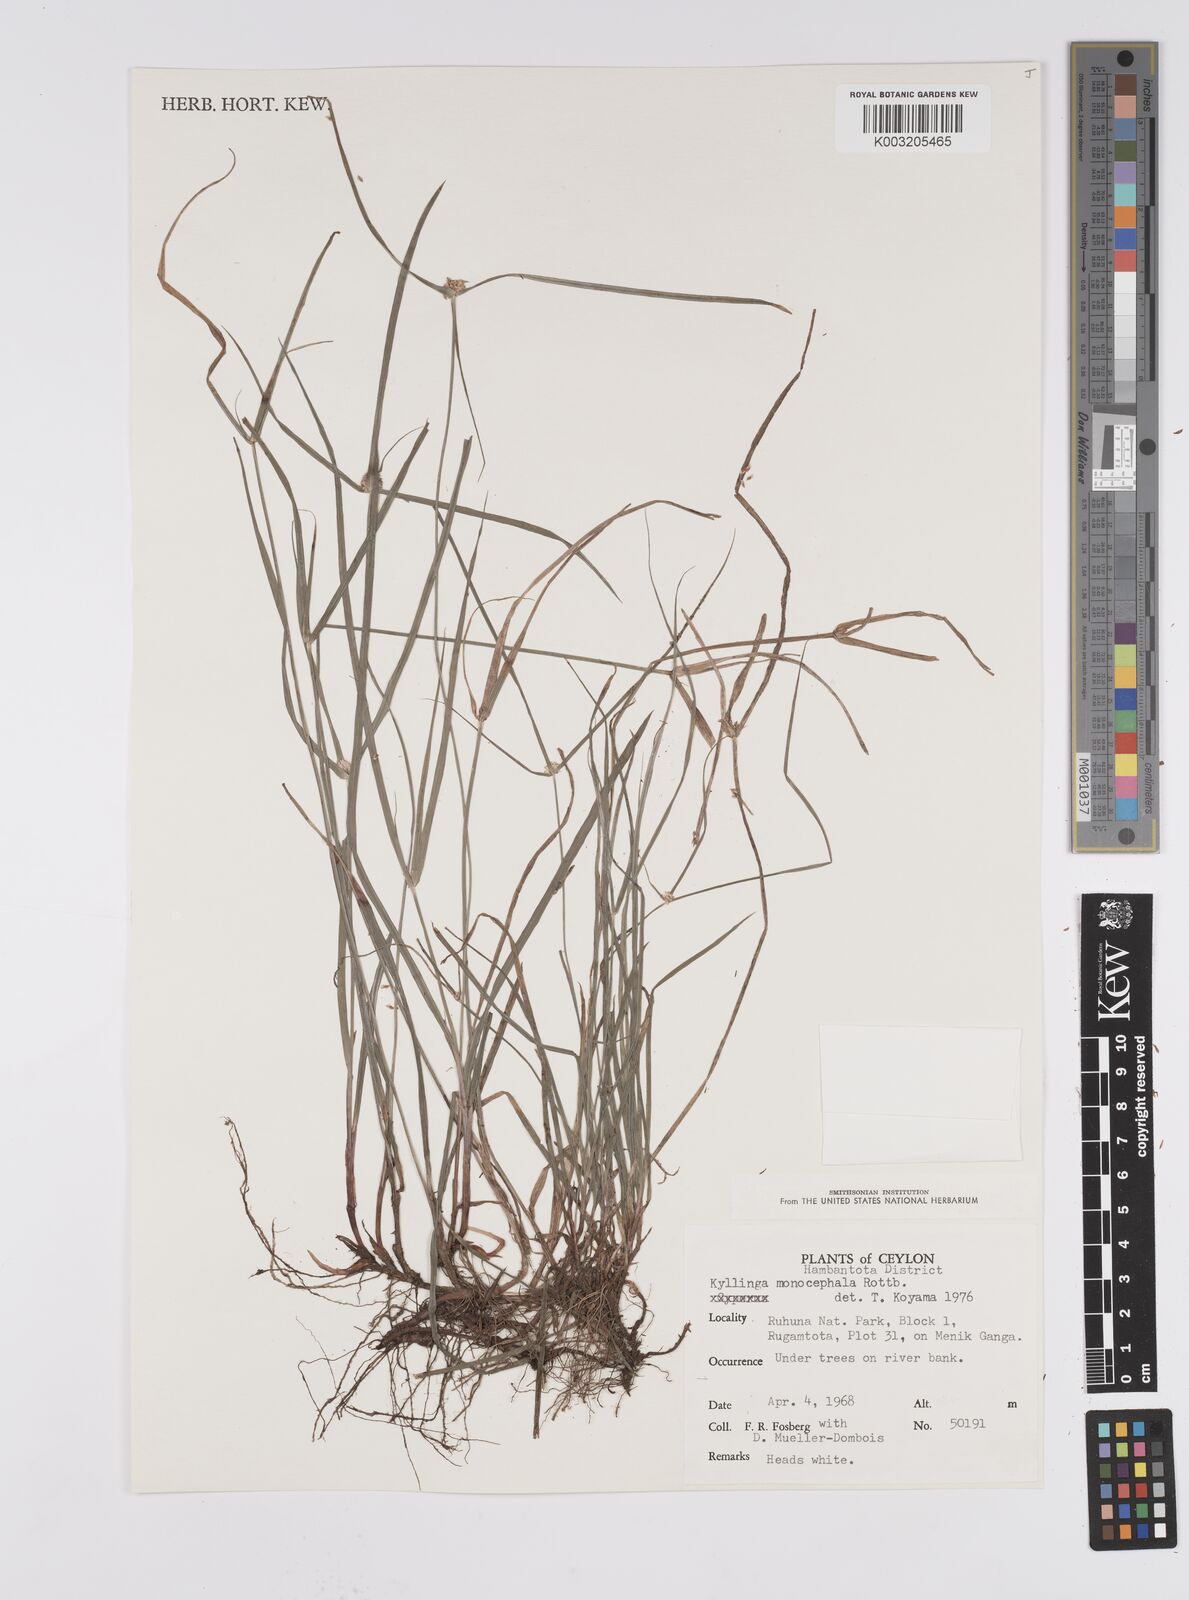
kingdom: Plantae
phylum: Tracheophyta
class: Liliopsida
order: Poales
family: Cyperaceae
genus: Cyperus
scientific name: Cyperus nemoralis
